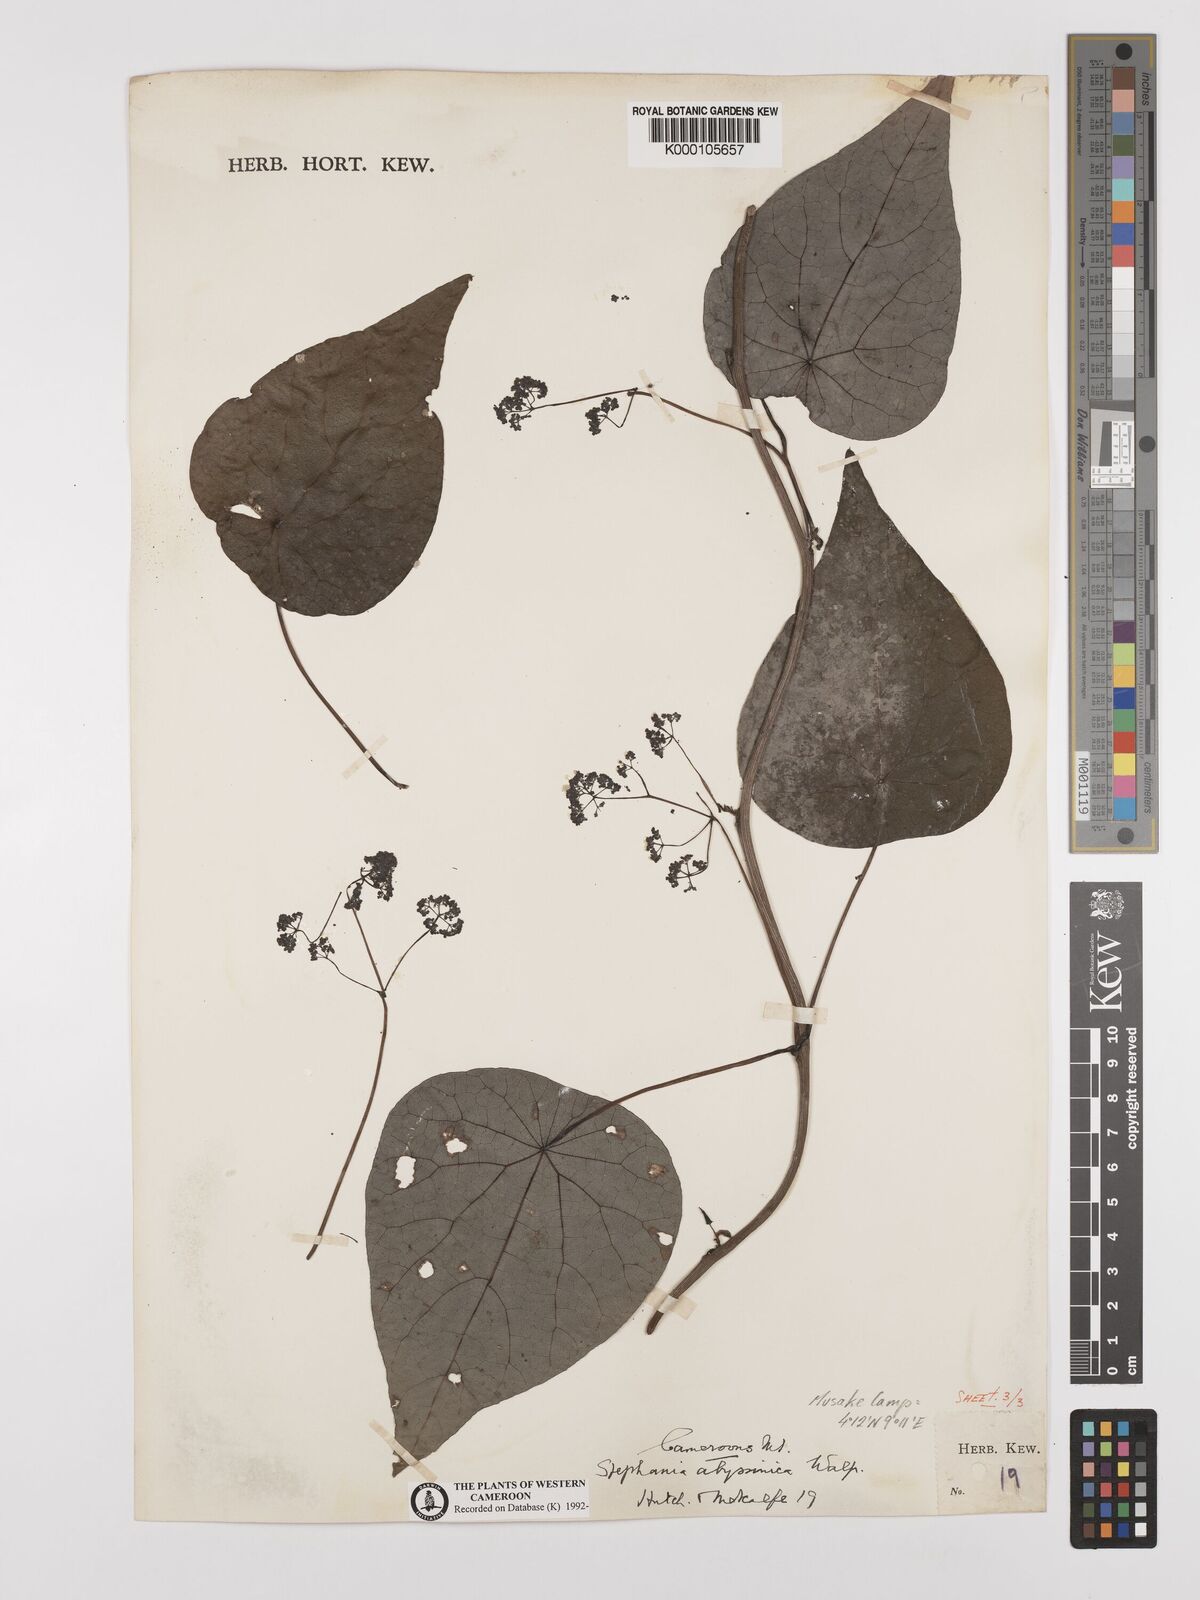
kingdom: Plantae
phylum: Tracheophyta
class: Magnoliopsida
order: Ranunculales
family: Menispermaceae
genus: Stephania
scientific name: Stephania abyssinica
